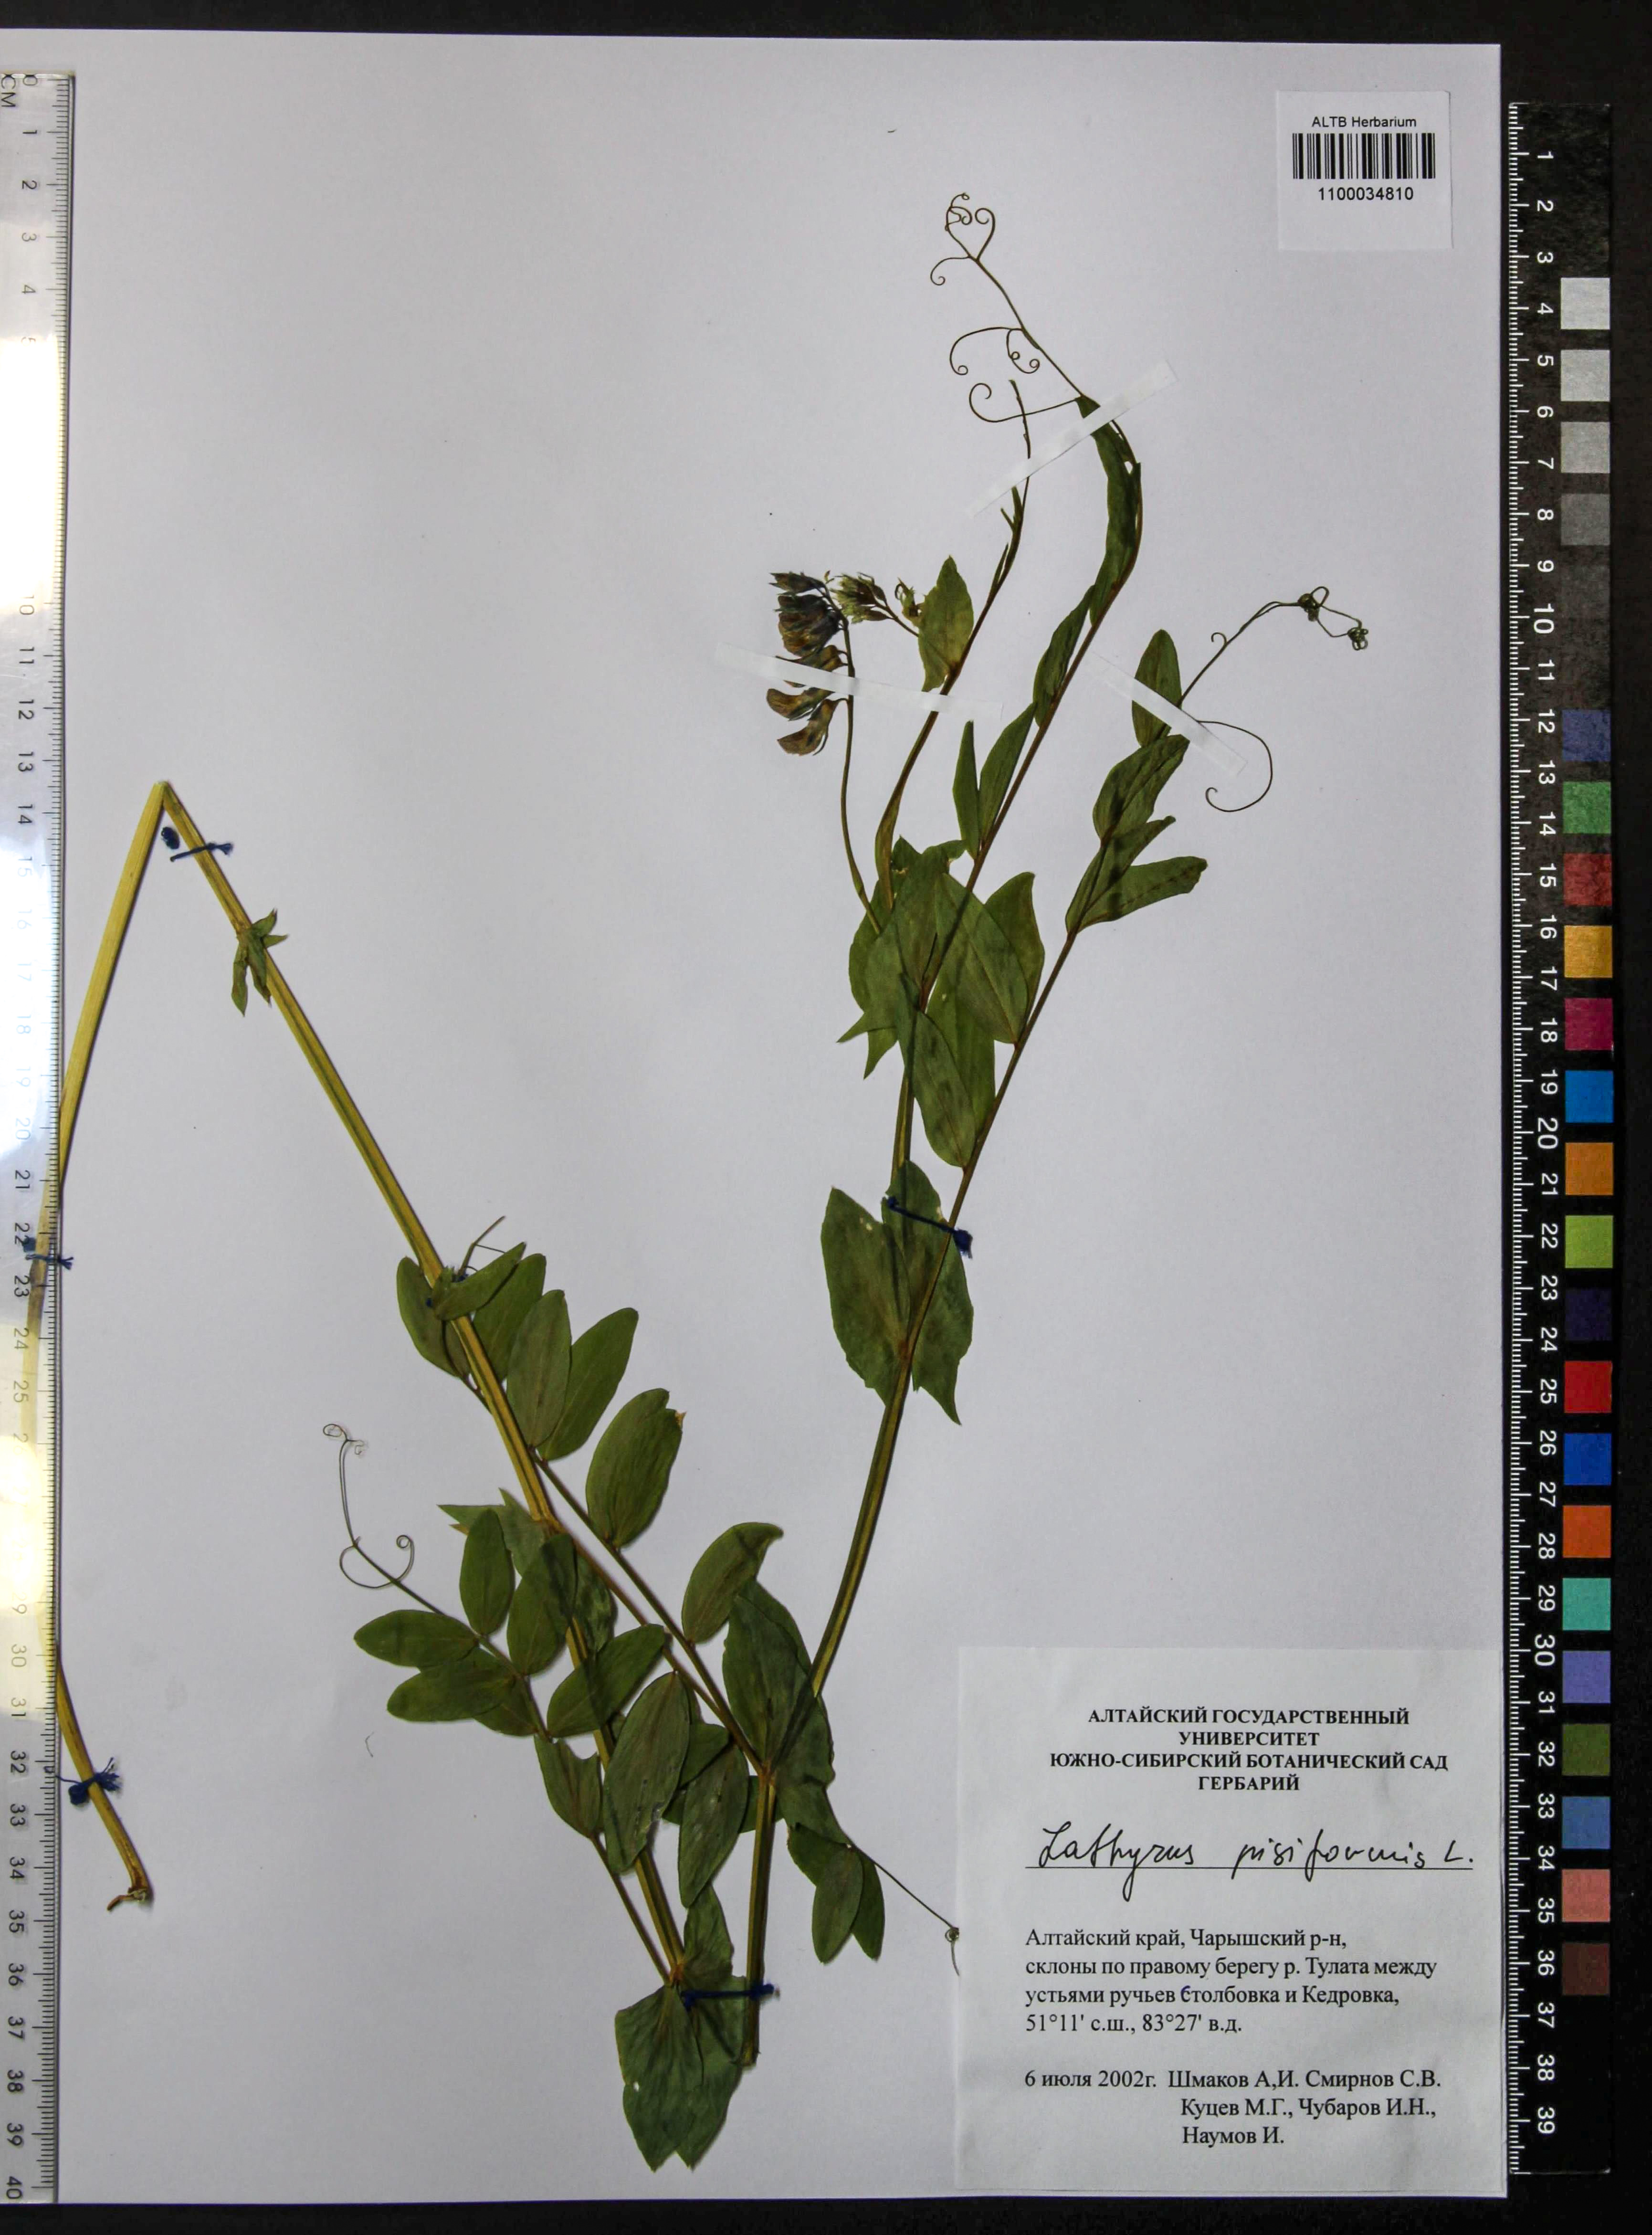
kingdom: Plantae
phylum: Tracheophyta
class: Magnoliopsida
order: Fabales
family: Fabaceae
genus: Lathyrus
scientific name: Lathyrus pisiformis
